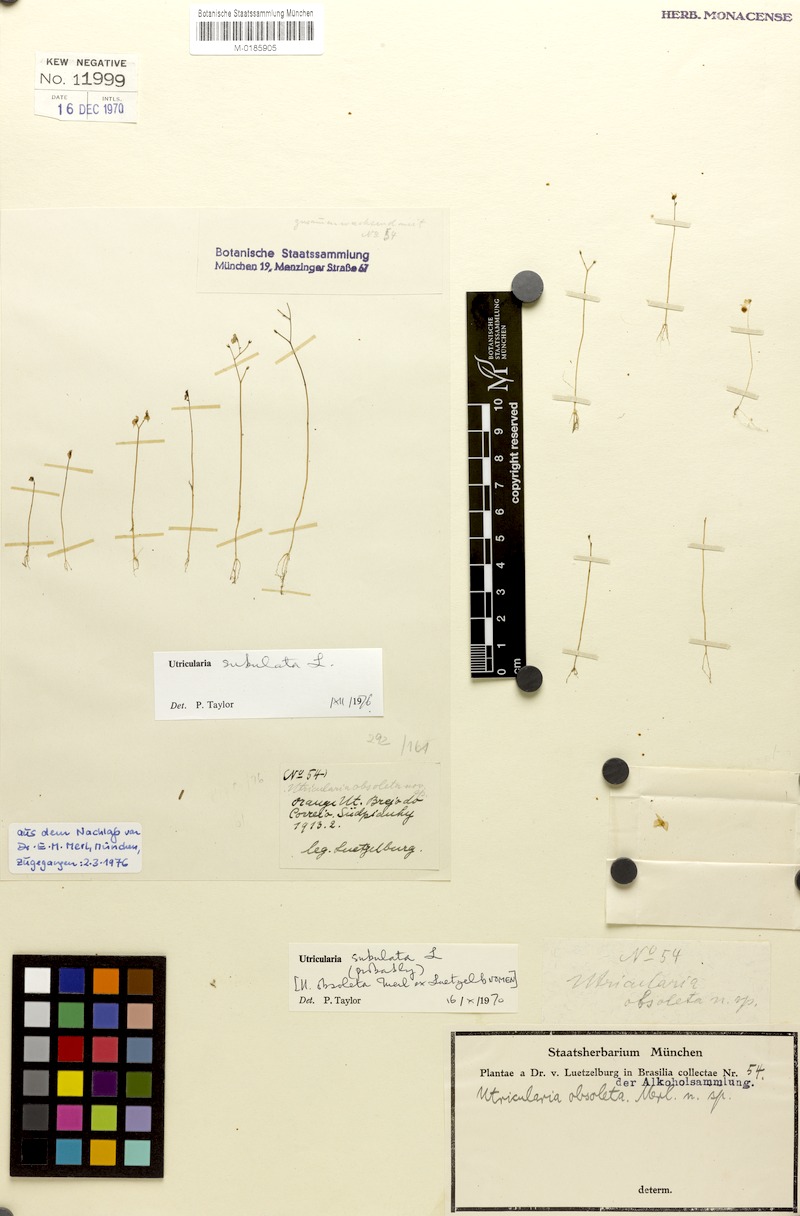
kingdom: Plantae
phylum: Tracheophyta
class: Magnoliopsida
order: Lamiales
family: Lentibulariaceae
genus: Utricularia
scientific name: Utricularia subulata
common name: Tiny bladderwort
